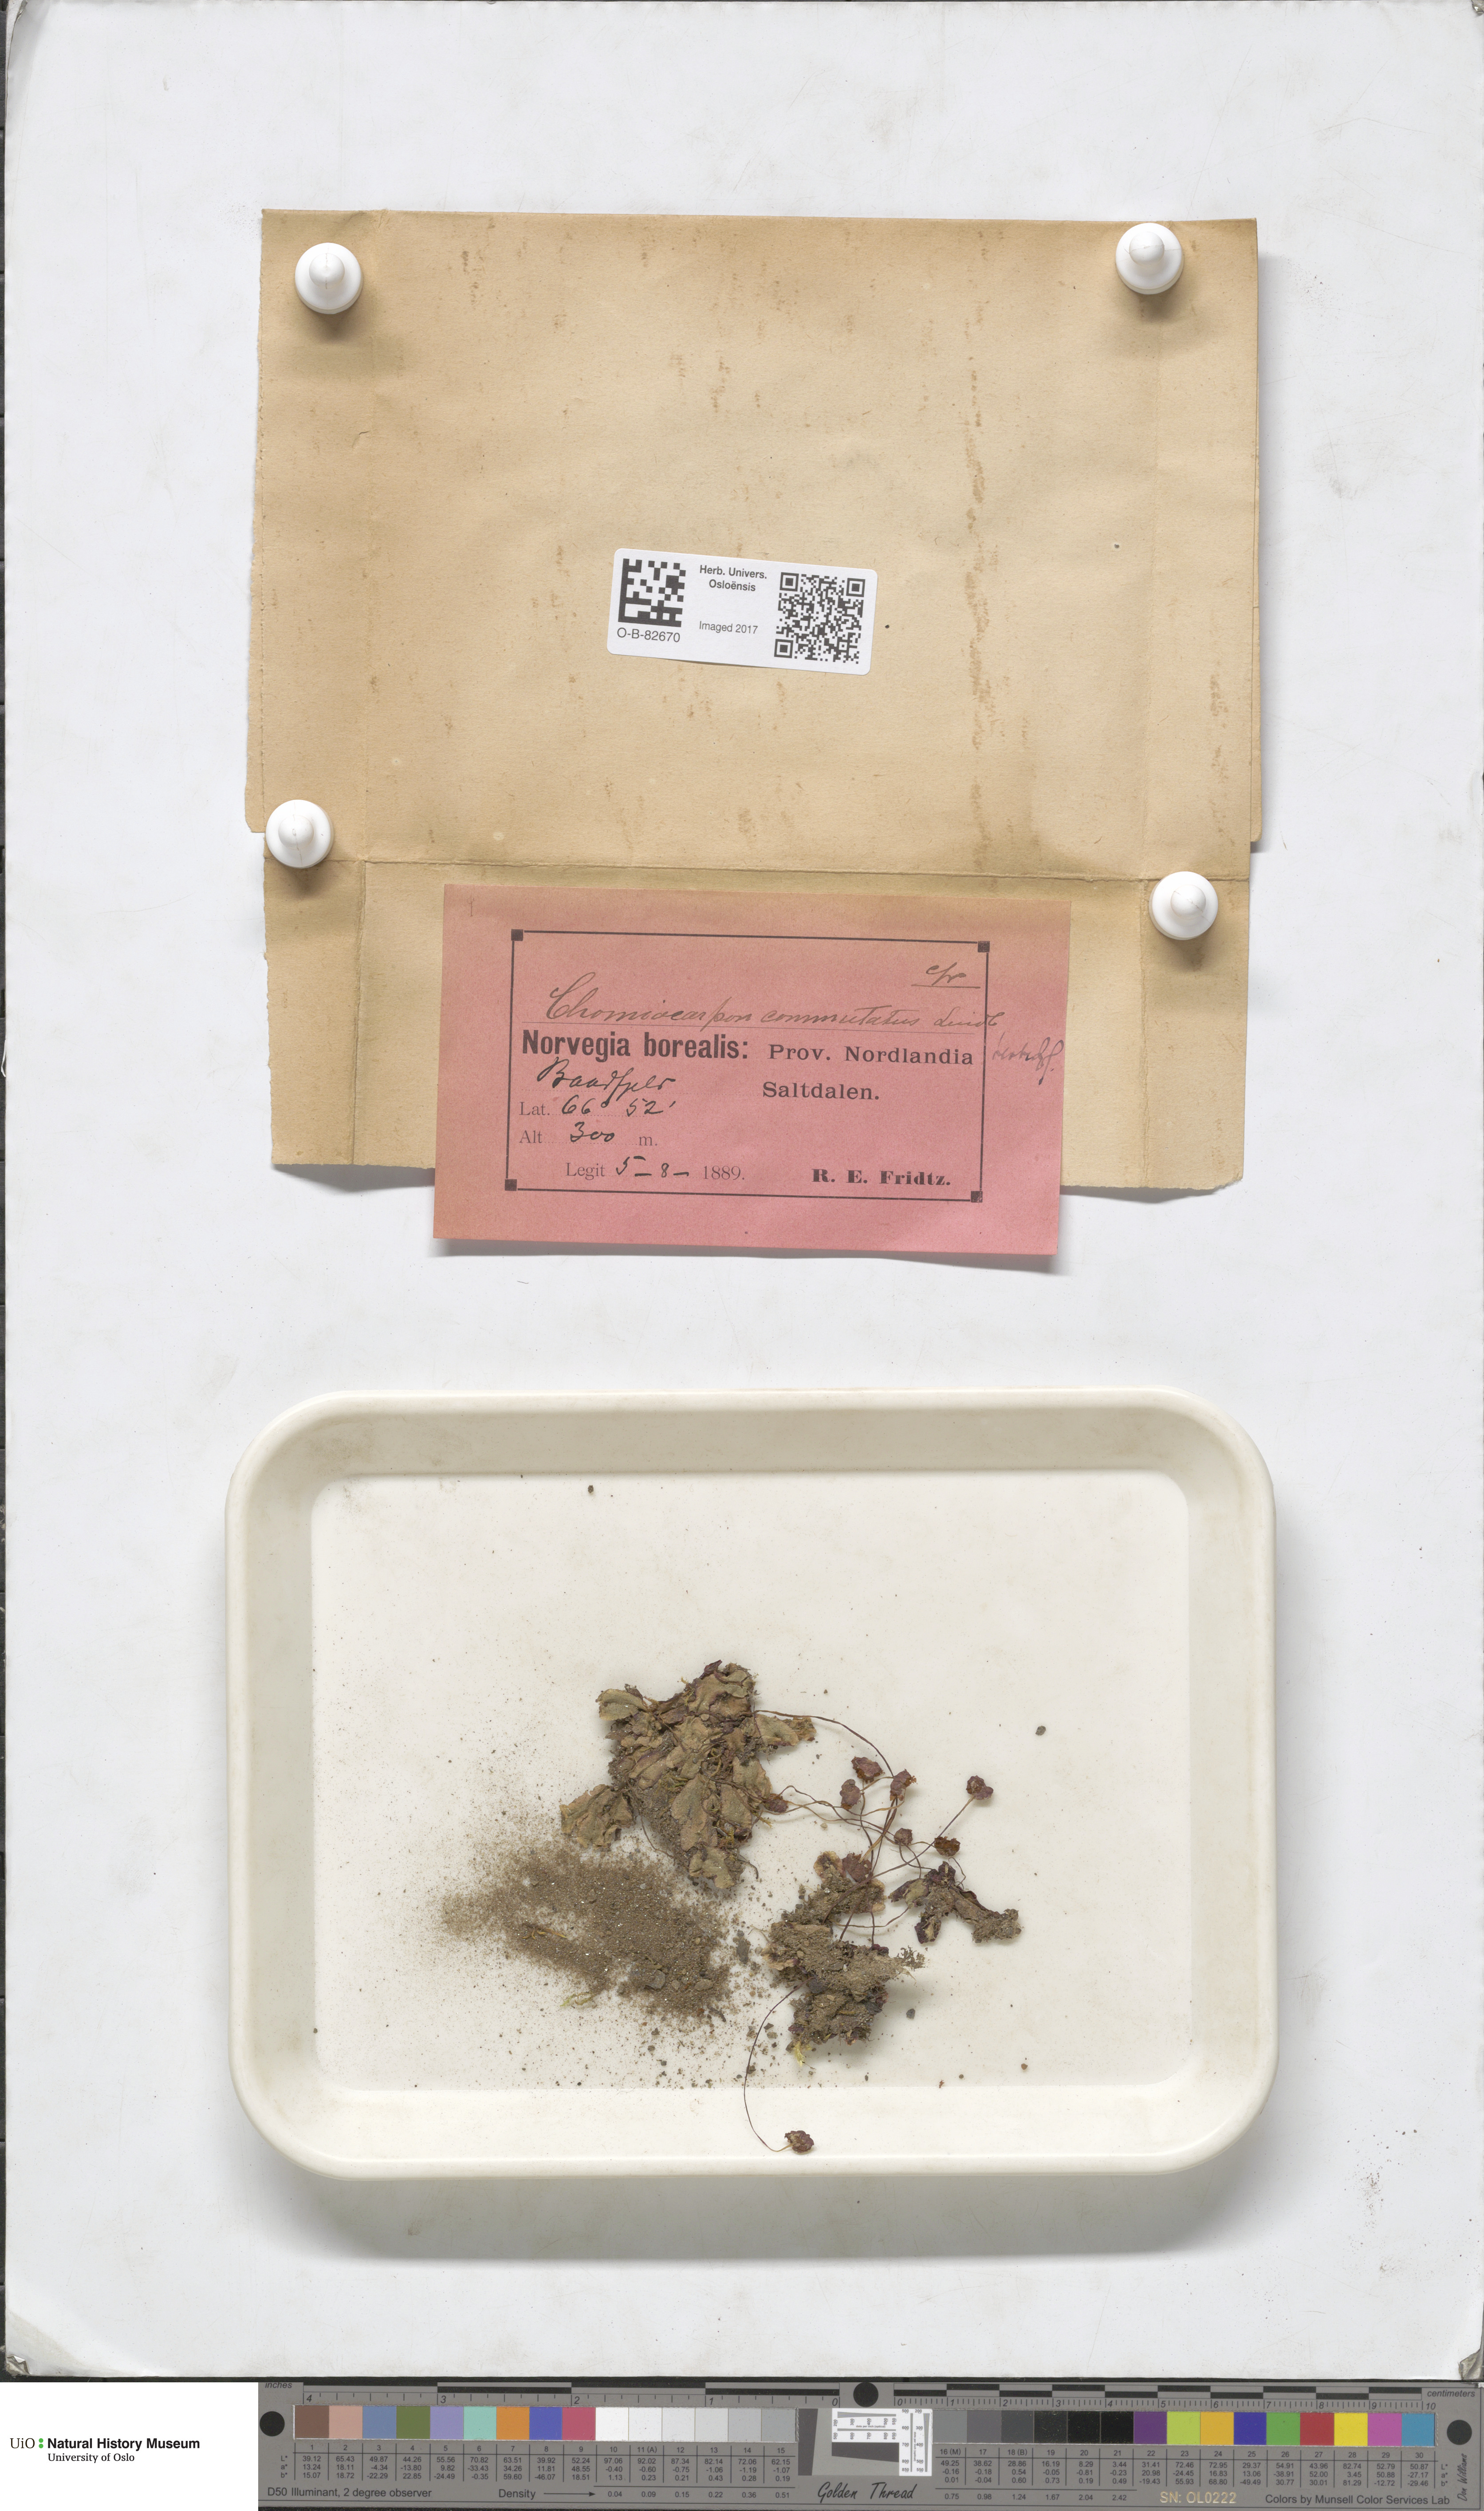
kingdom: Plantae
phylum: Marchantiophyta
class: Marchantiopsida
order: Marchantiales
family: Marchantiaceae
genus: Marchantia
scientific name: Marchantia quadrata
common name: Narrow mushroom-headed liverwort
